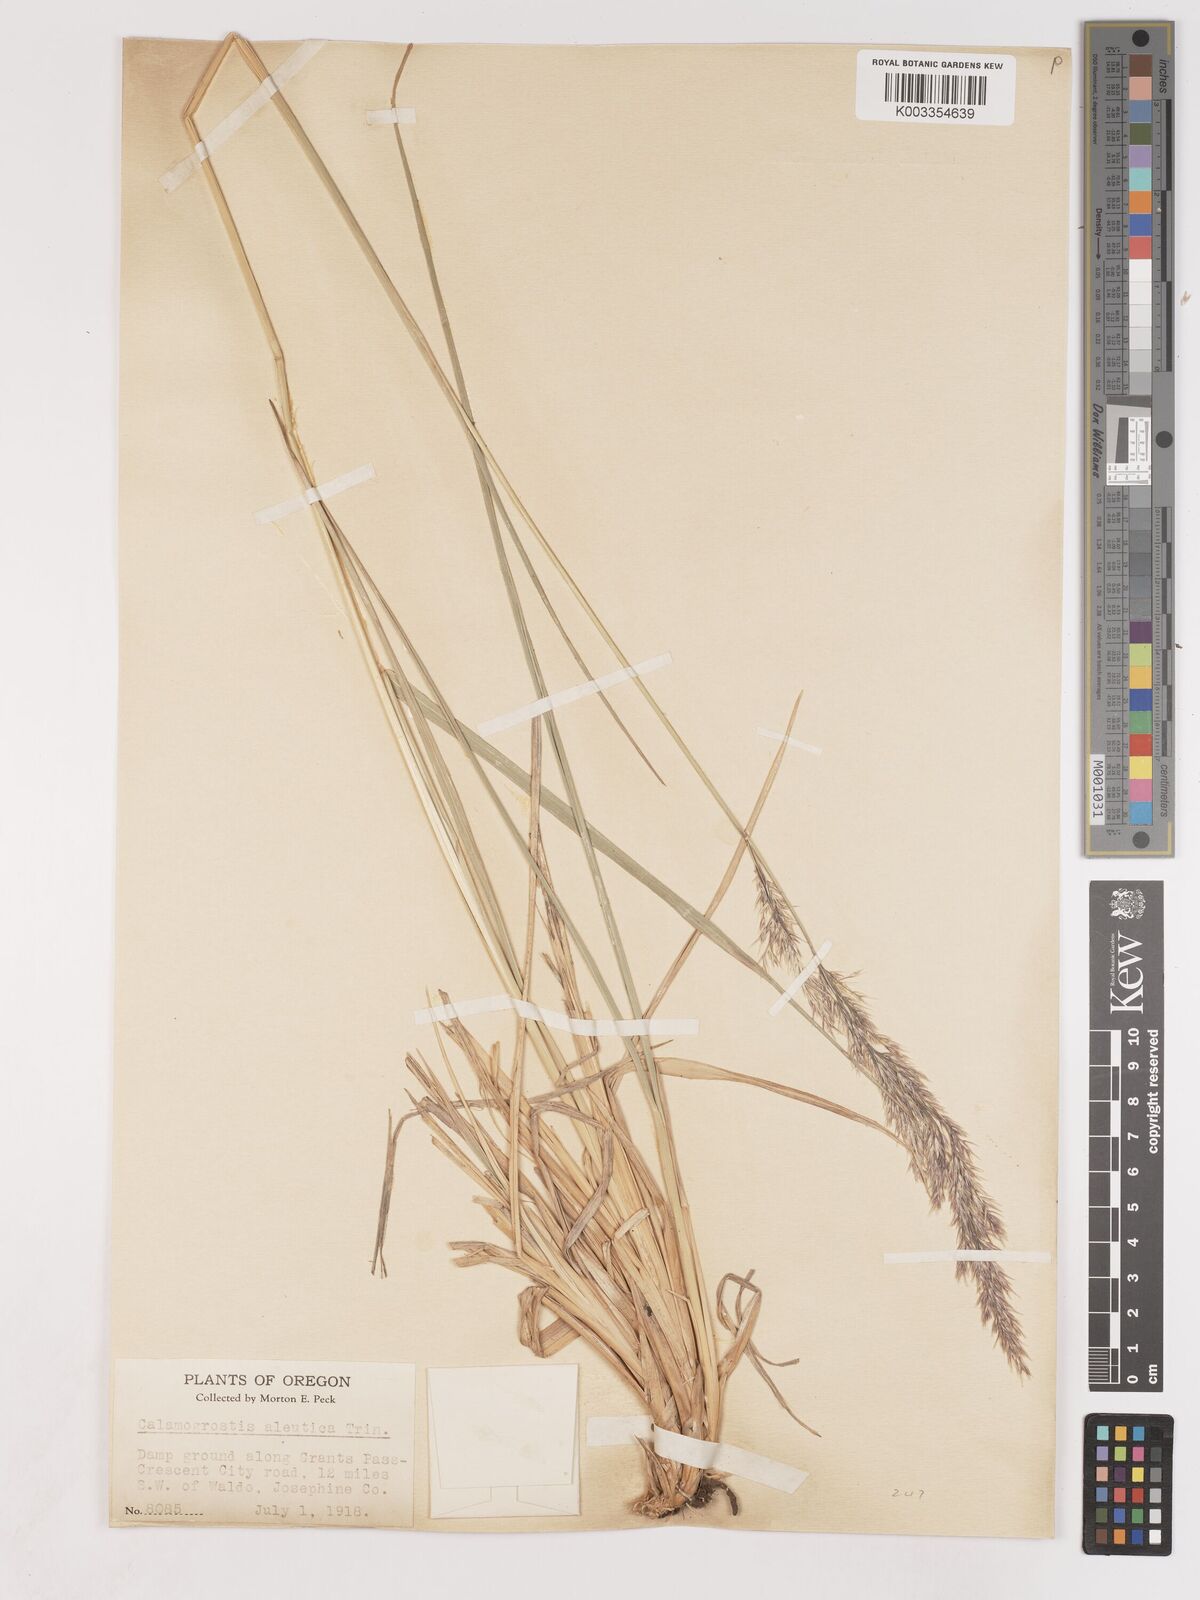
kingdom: Plantae
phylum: Tracheophyta
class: Liliopsida
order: Poales
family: Poaceae
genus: Calamagrostis
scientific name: Calamagrostis nutkaensis
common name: Pacific reed grass
